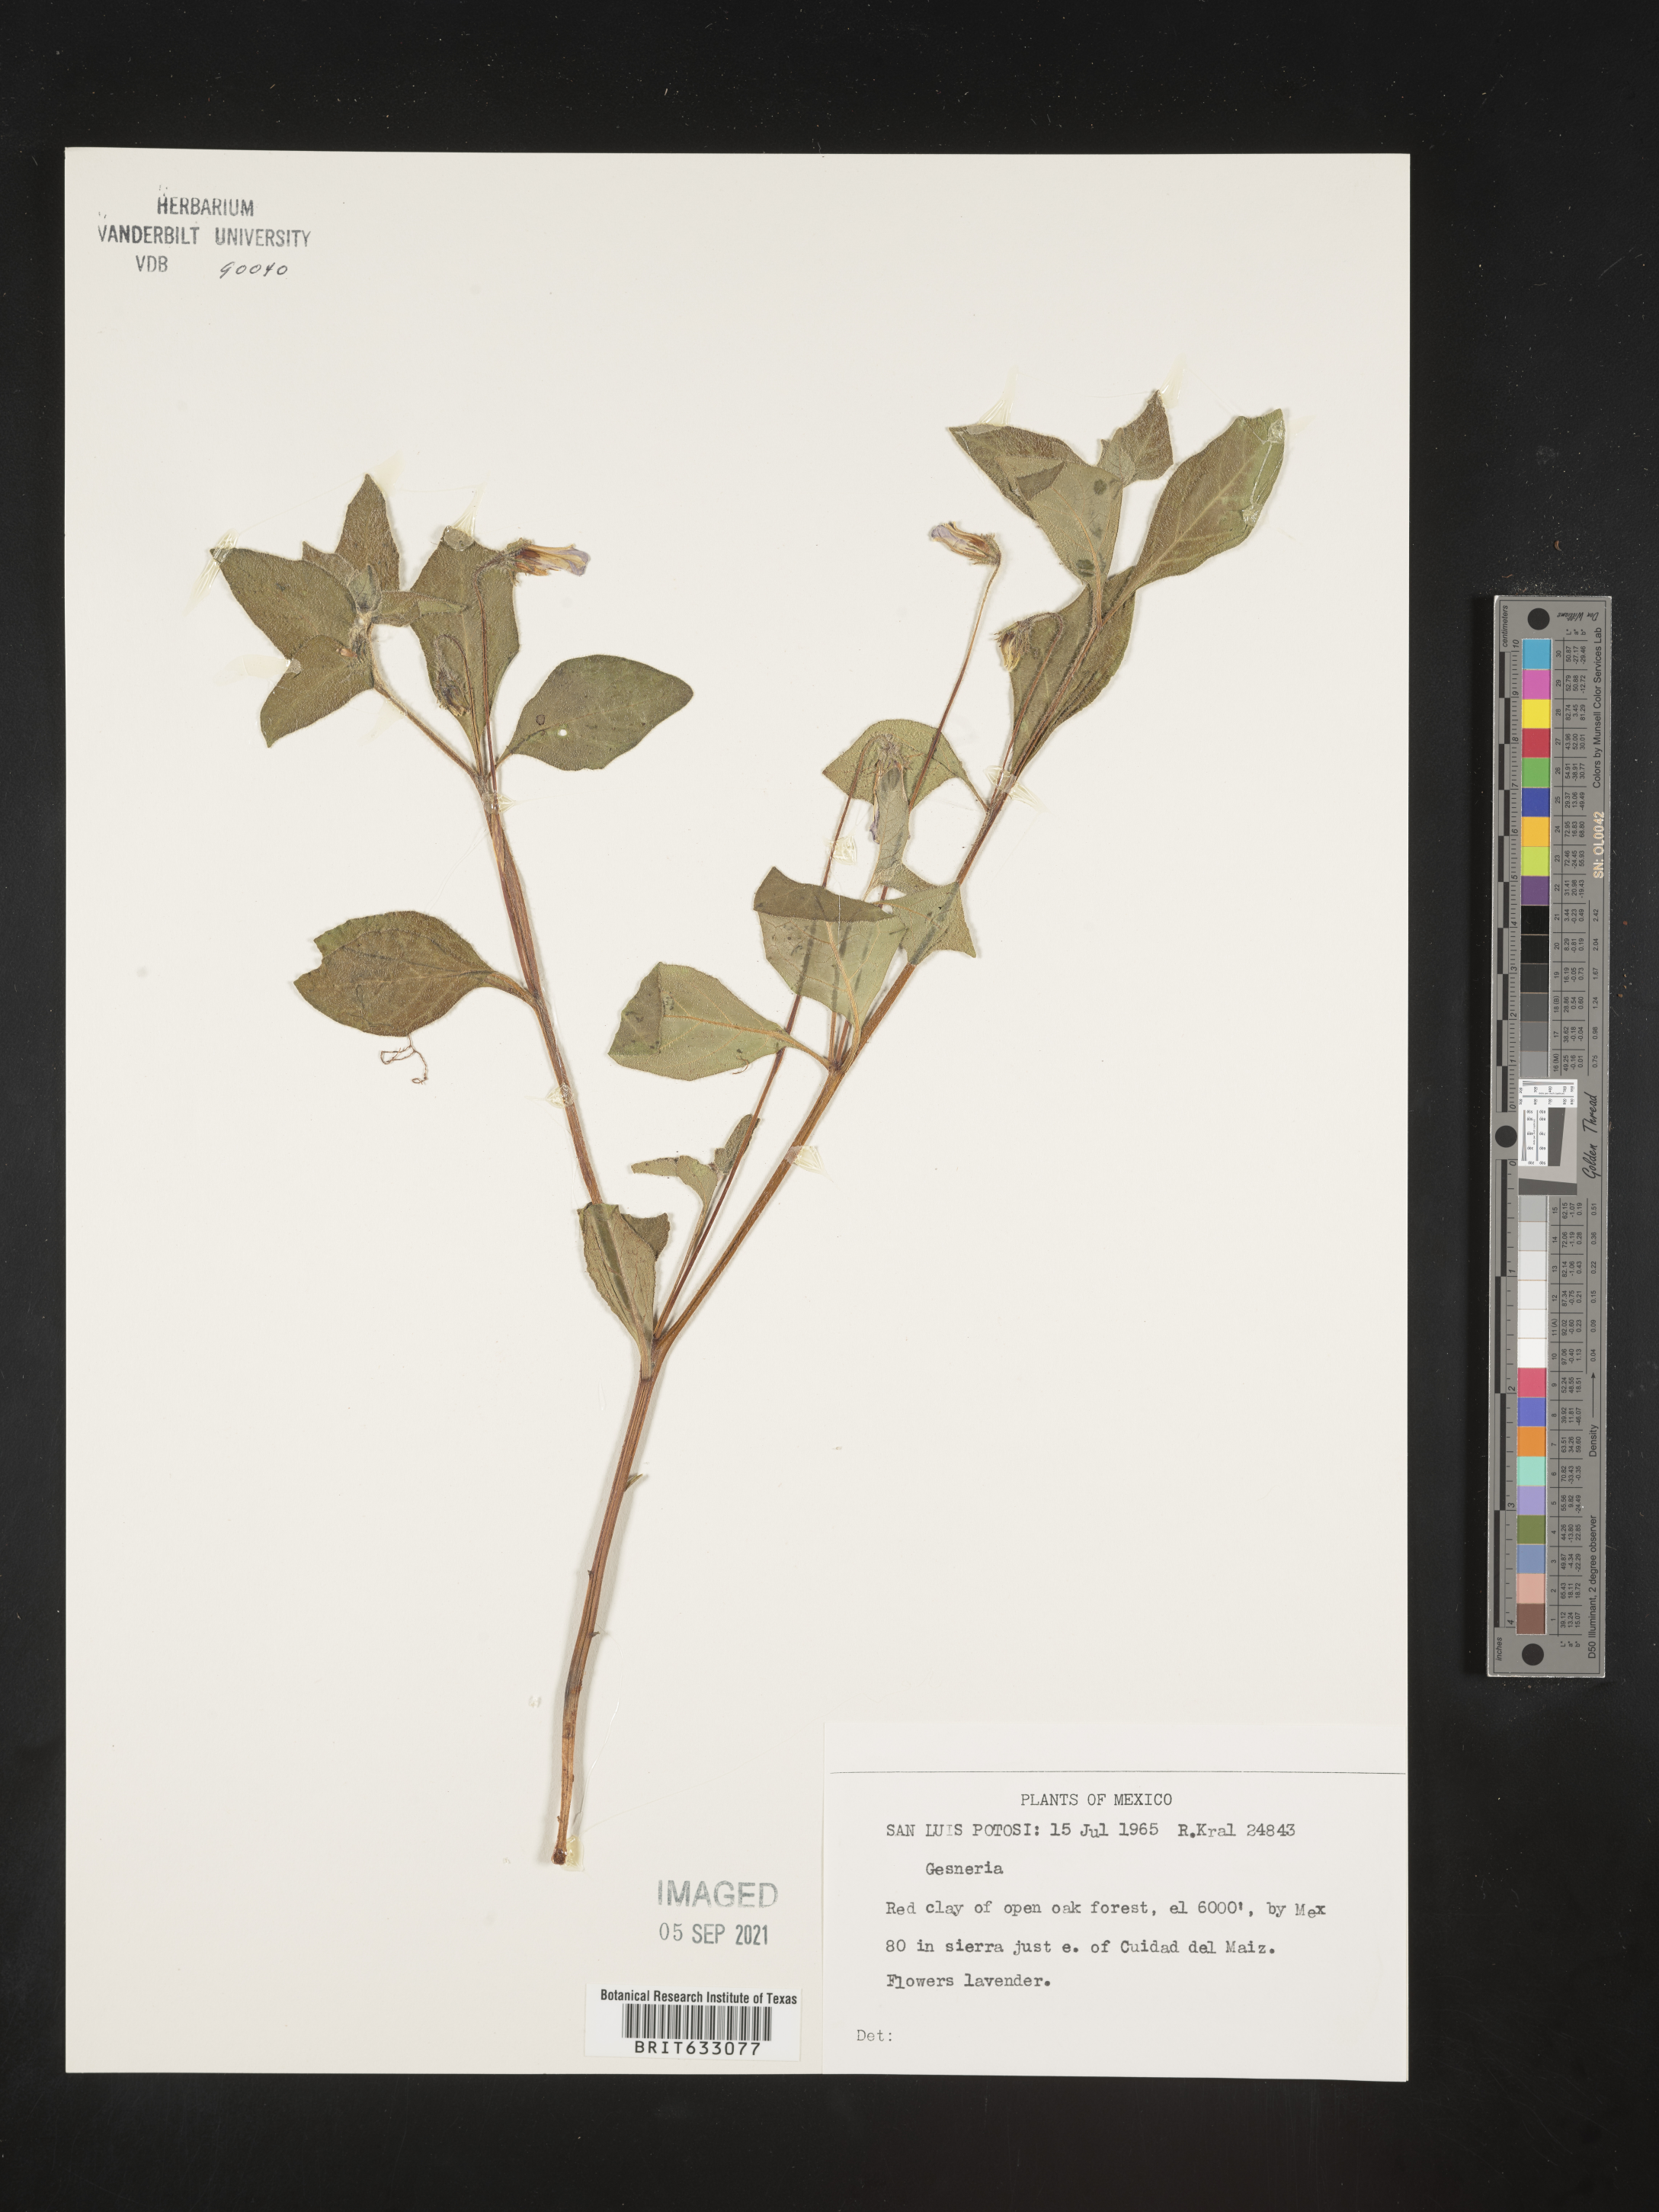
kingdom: Plantae
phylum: Tracheophyta
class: Magnoliopsida
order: Lamiales
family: Gesneriaceae
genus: Gesneria
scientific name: Gesneria
